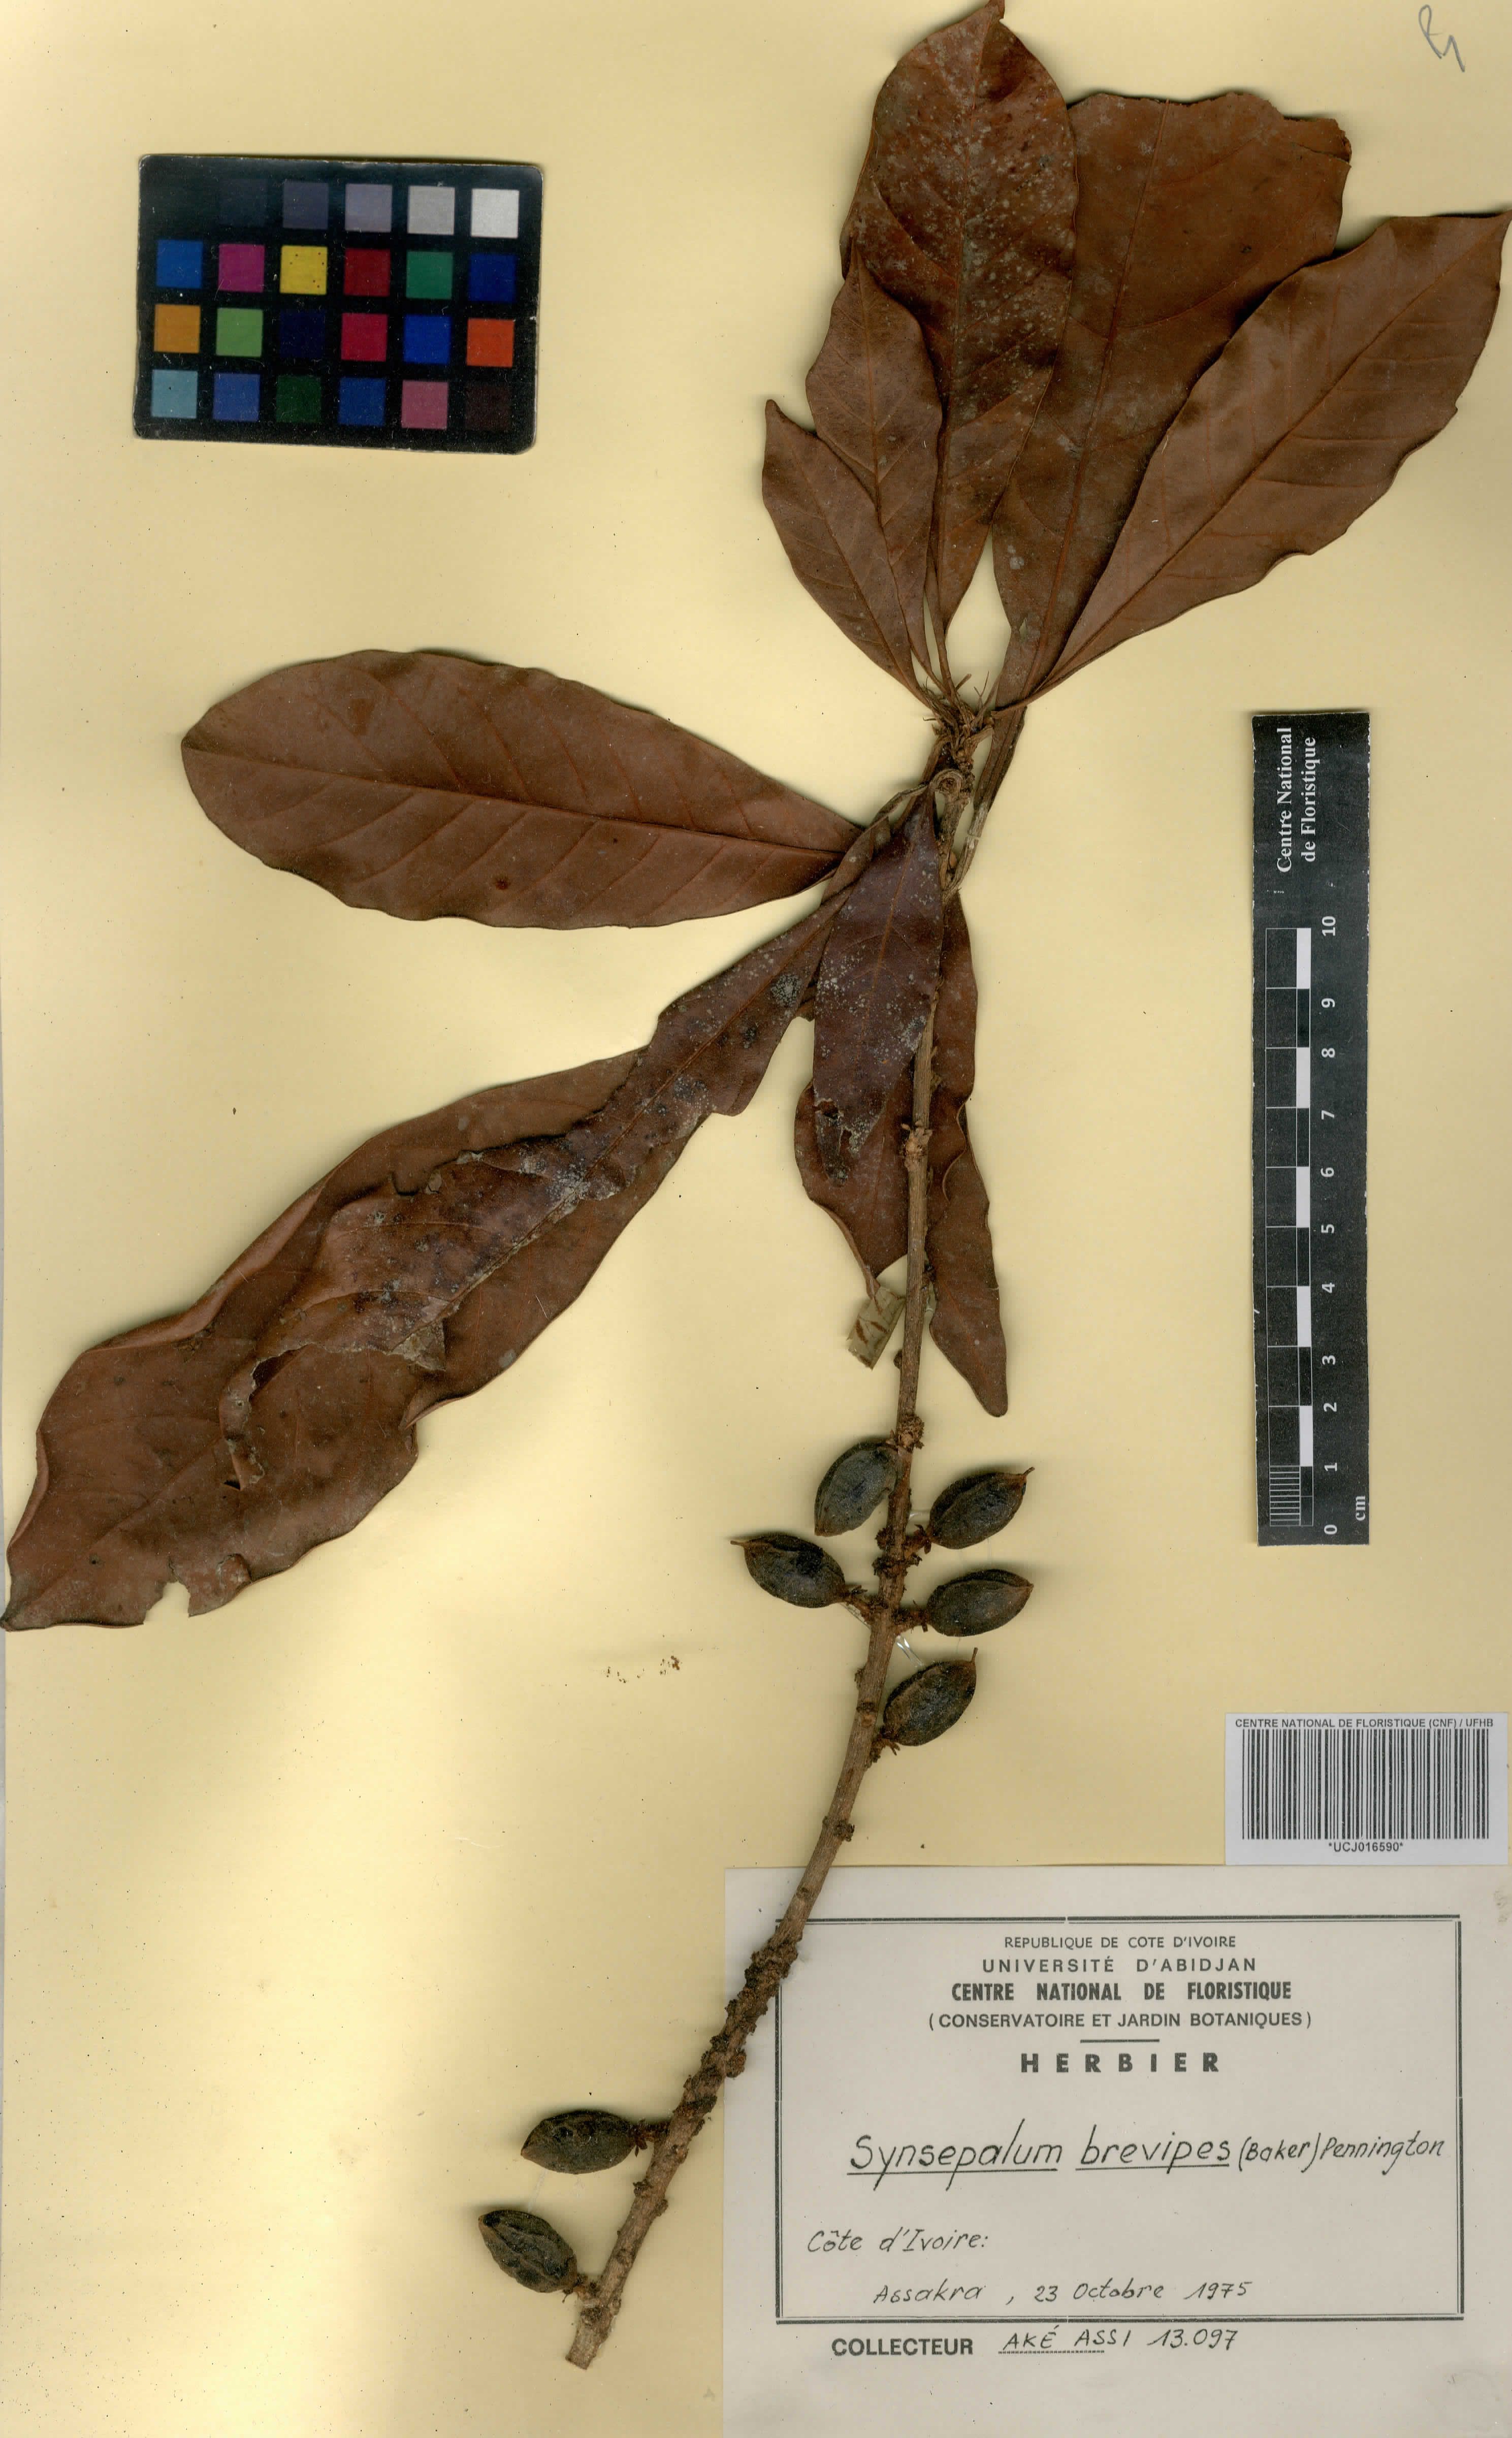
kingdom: Plantae
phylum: Tracheophyta
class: Magnoliopsida
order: Ericales
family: Sapotaceae
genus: Synsepalum
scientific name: Synsepalum brevipes
